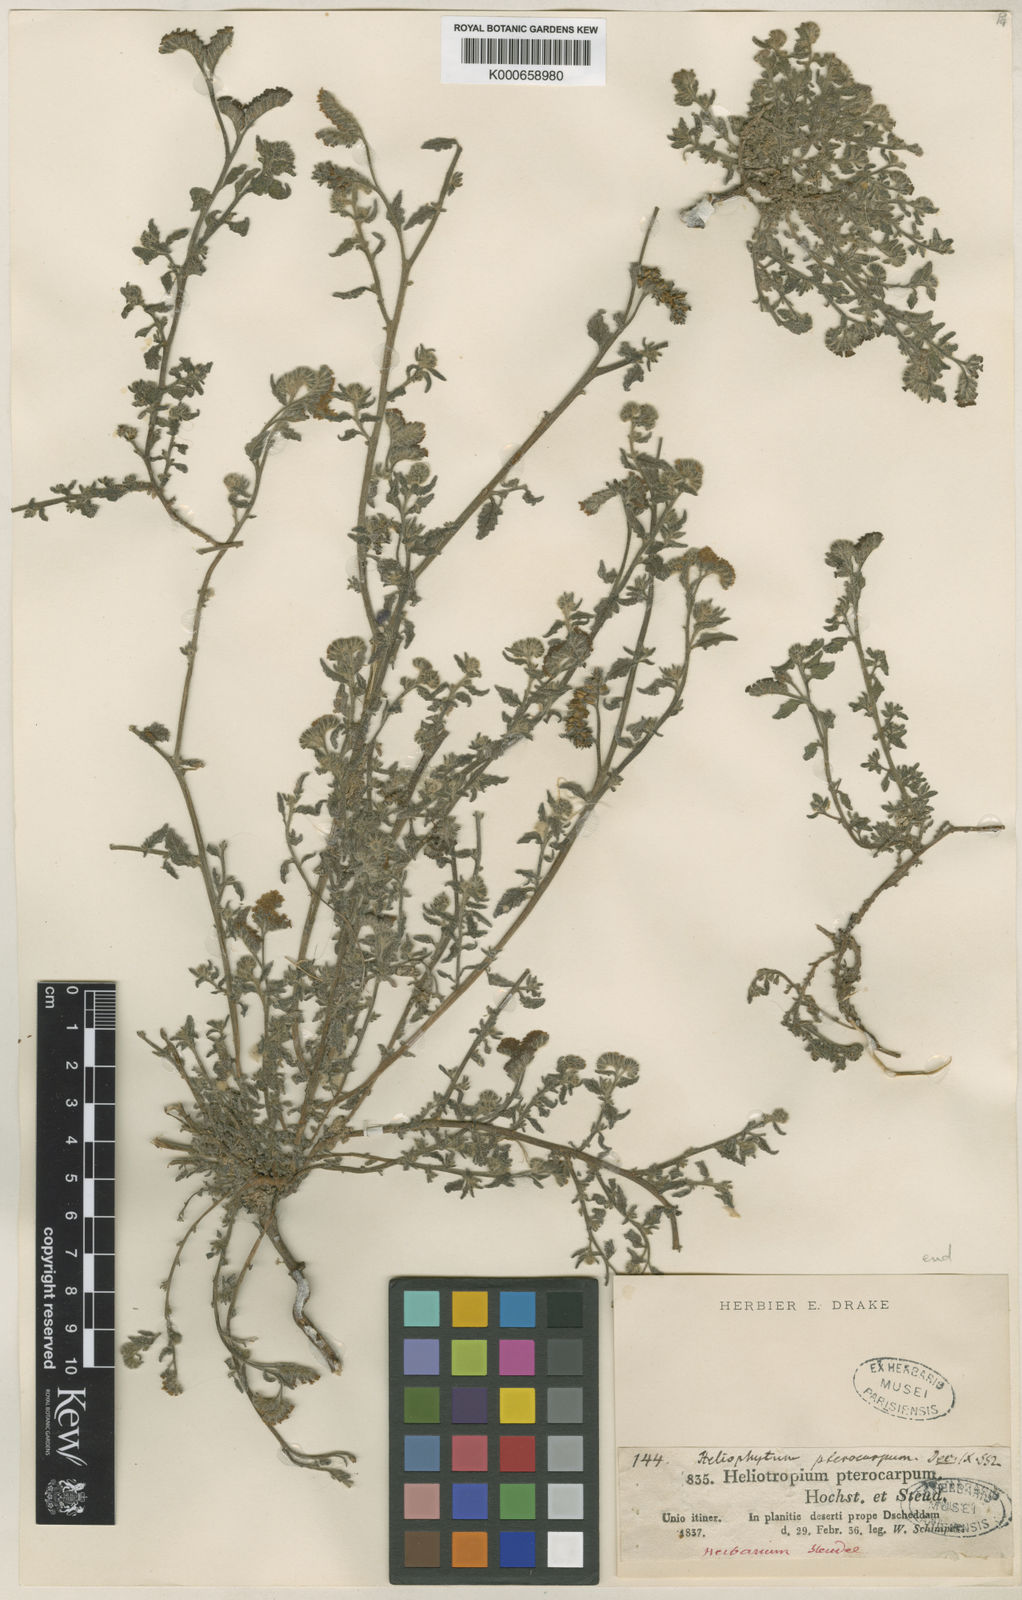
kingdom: Plantae
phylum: Tracheophyta
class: Magnoliopsida
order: Boraginales
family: Heliotropiaceae
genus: Heliotropium
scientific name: Heliotropium pterocarpum
